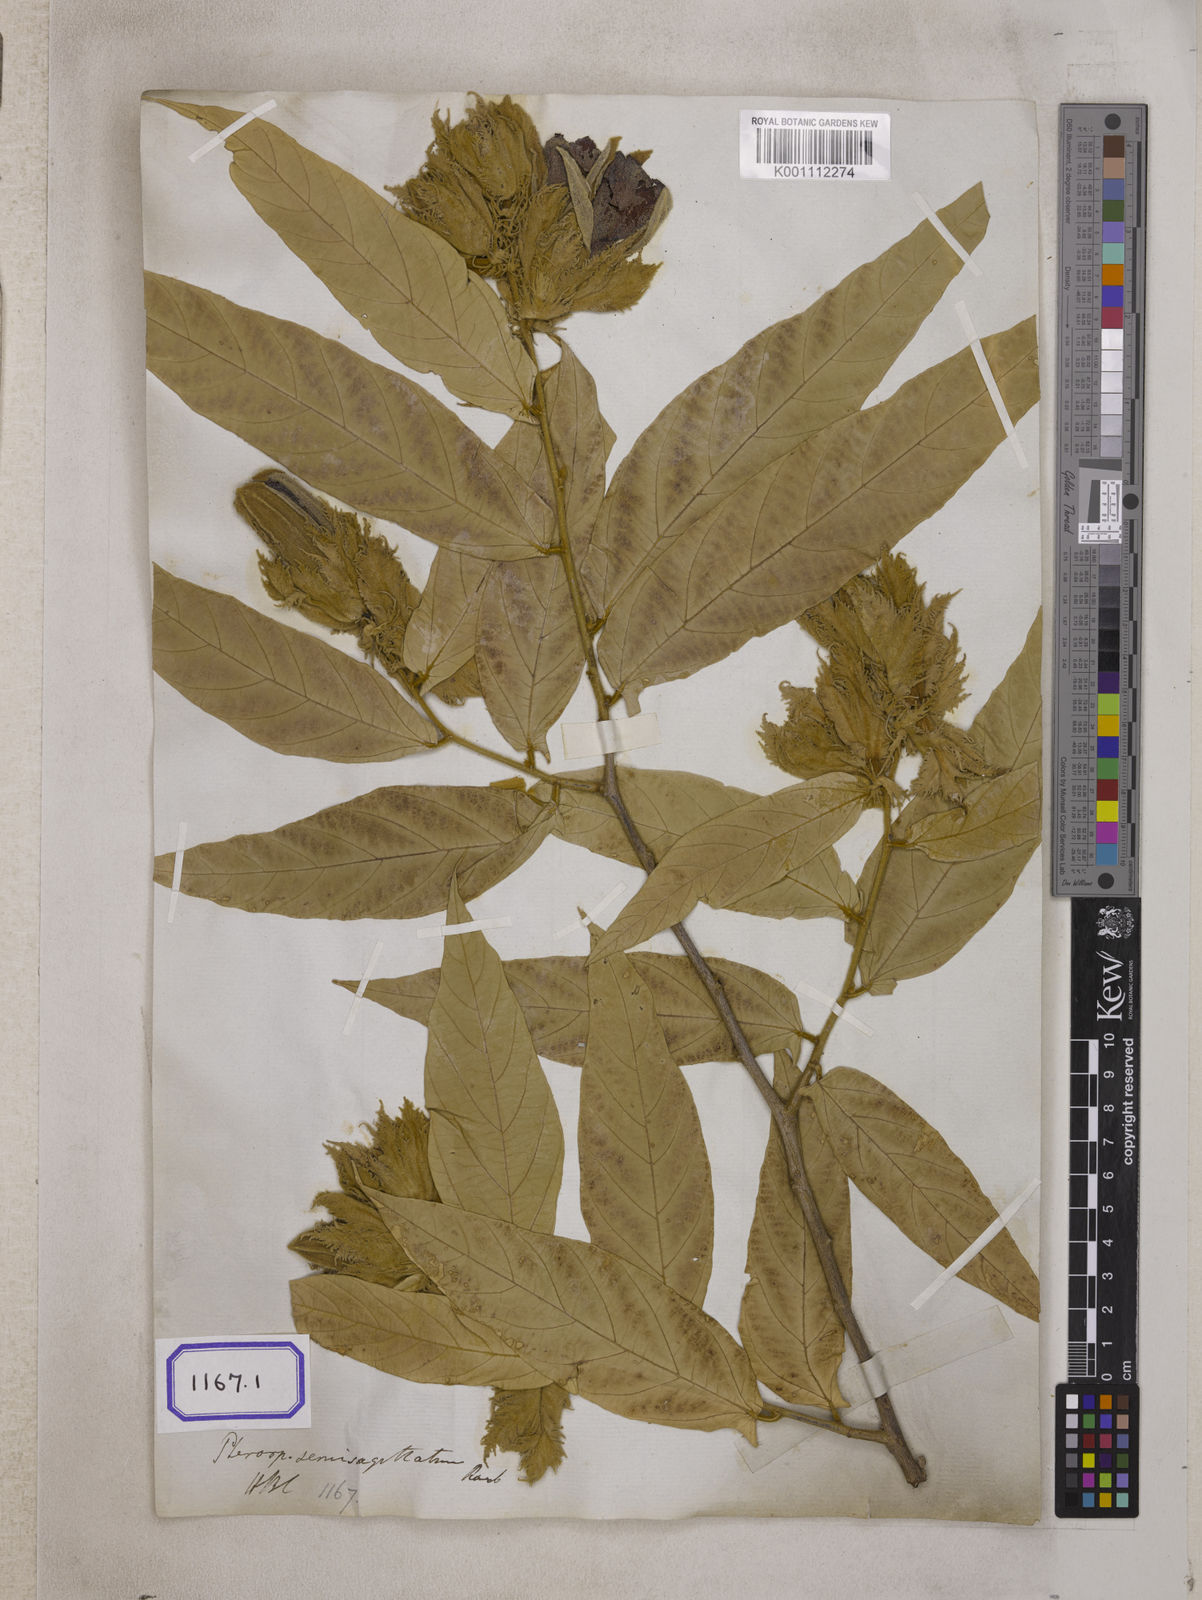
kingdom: Plantae
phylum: Tracheophyta
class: Magnoliopsida
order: Malvales
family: Malvaceae
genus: Pterospermum
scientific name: Pterospermum semisagittatum
